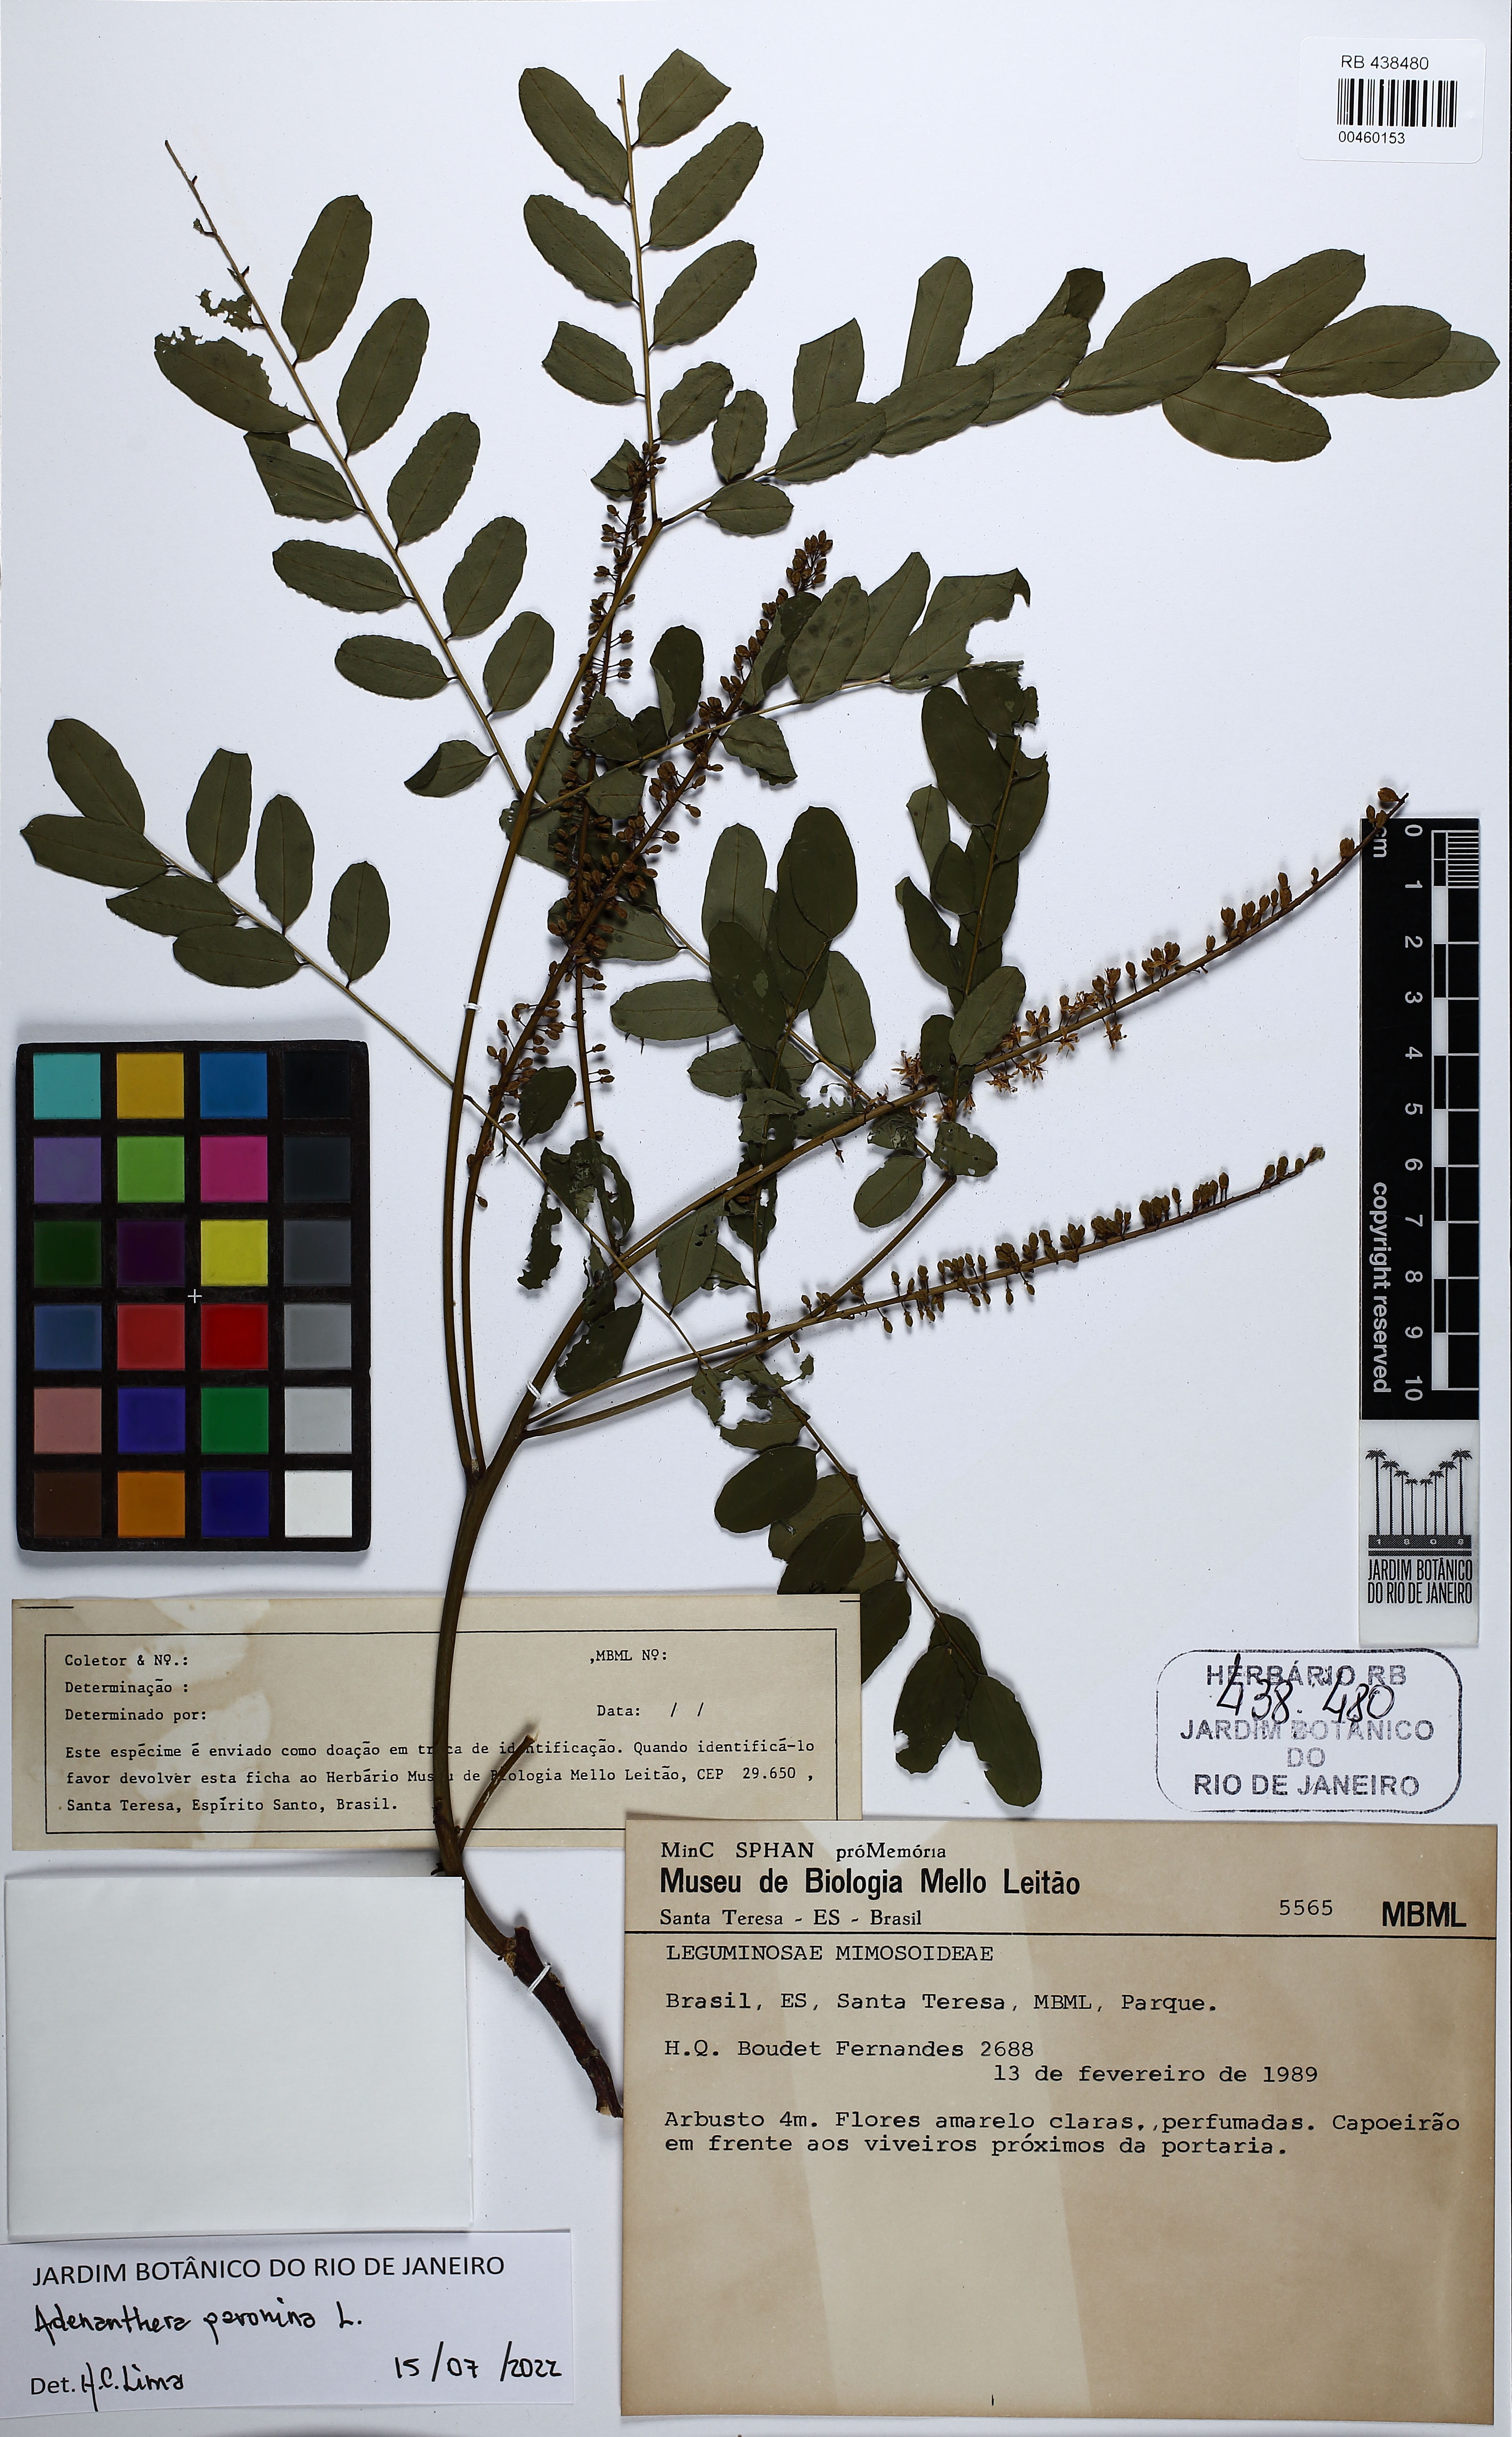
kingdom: Plantae
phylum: Tracheophyta
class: Magnoliopsida
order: Fabales
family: Fabaceae
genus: Adenanthera
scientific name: Adenanthera pavonina
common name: Red beadtree
